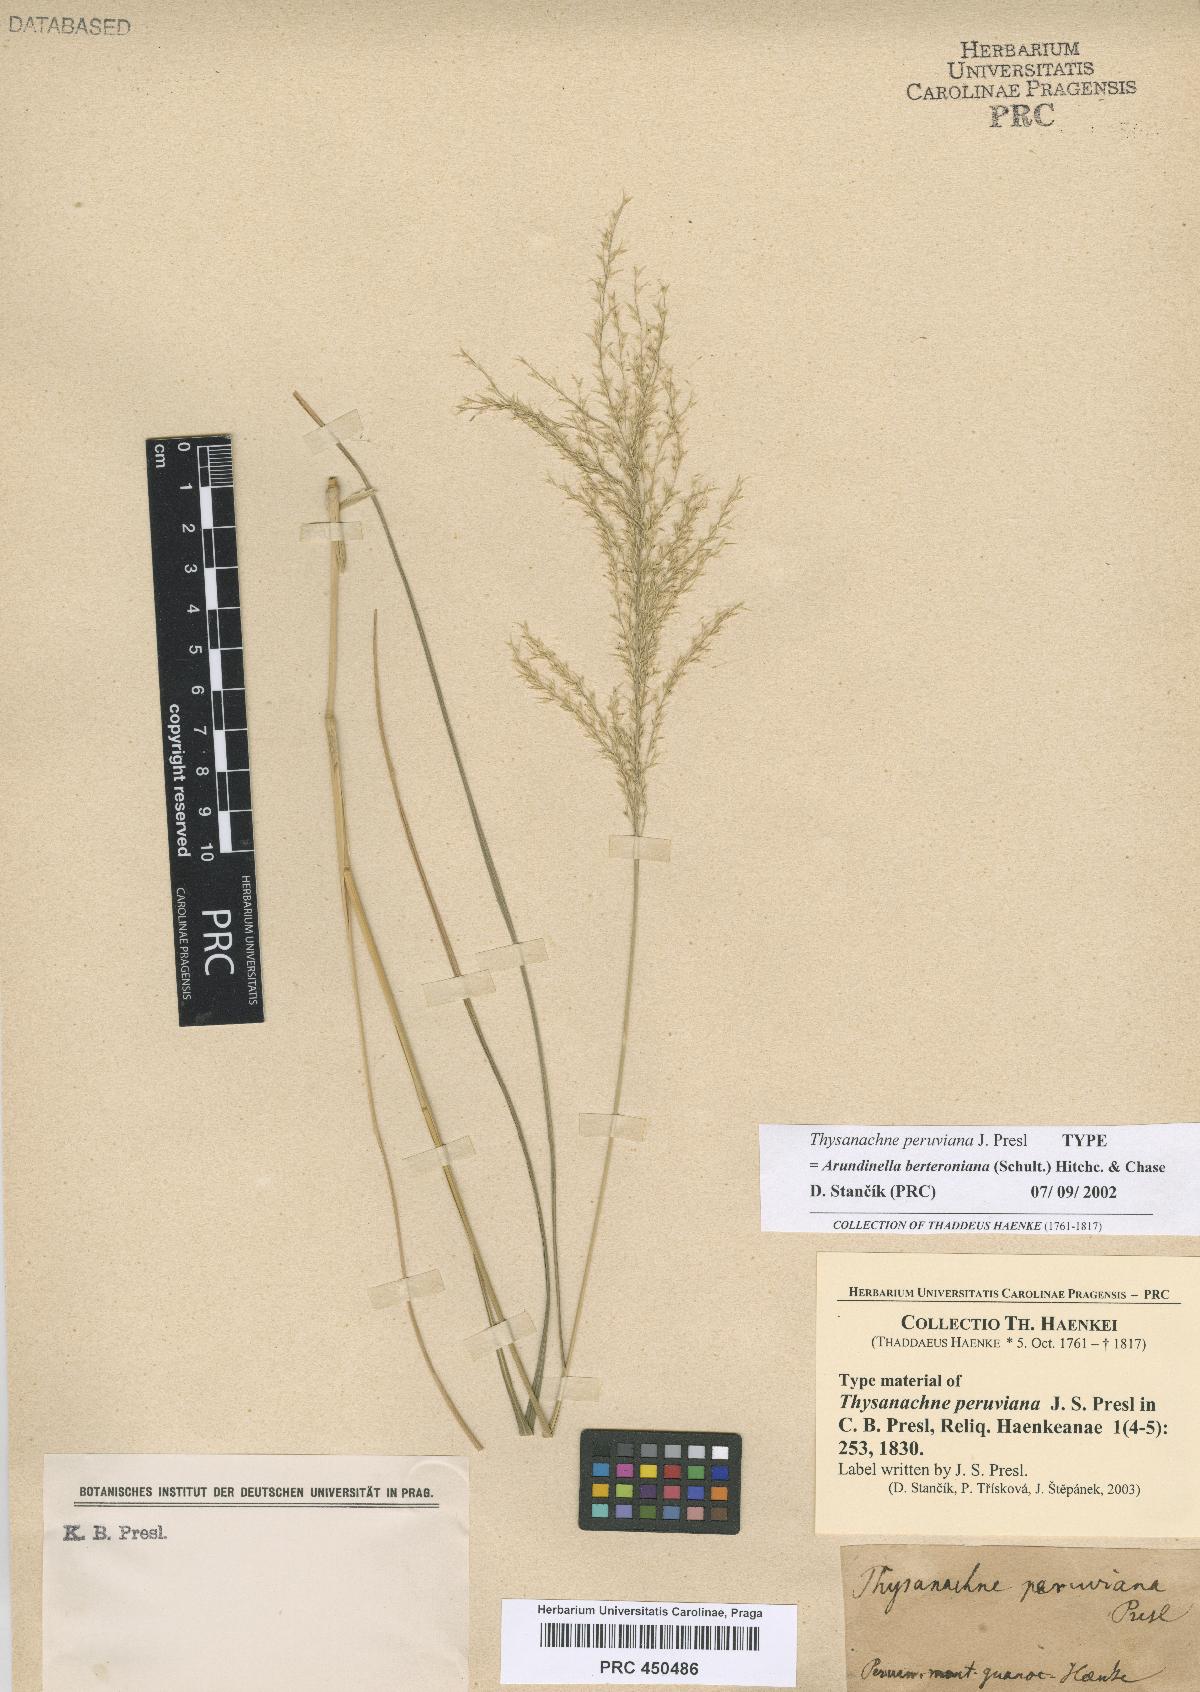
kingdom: Plantae
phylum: Tracheophyta
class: Liliopsida
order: Poales
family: Poaceae
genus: Arundinella
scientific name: Arundinella berteroniana
